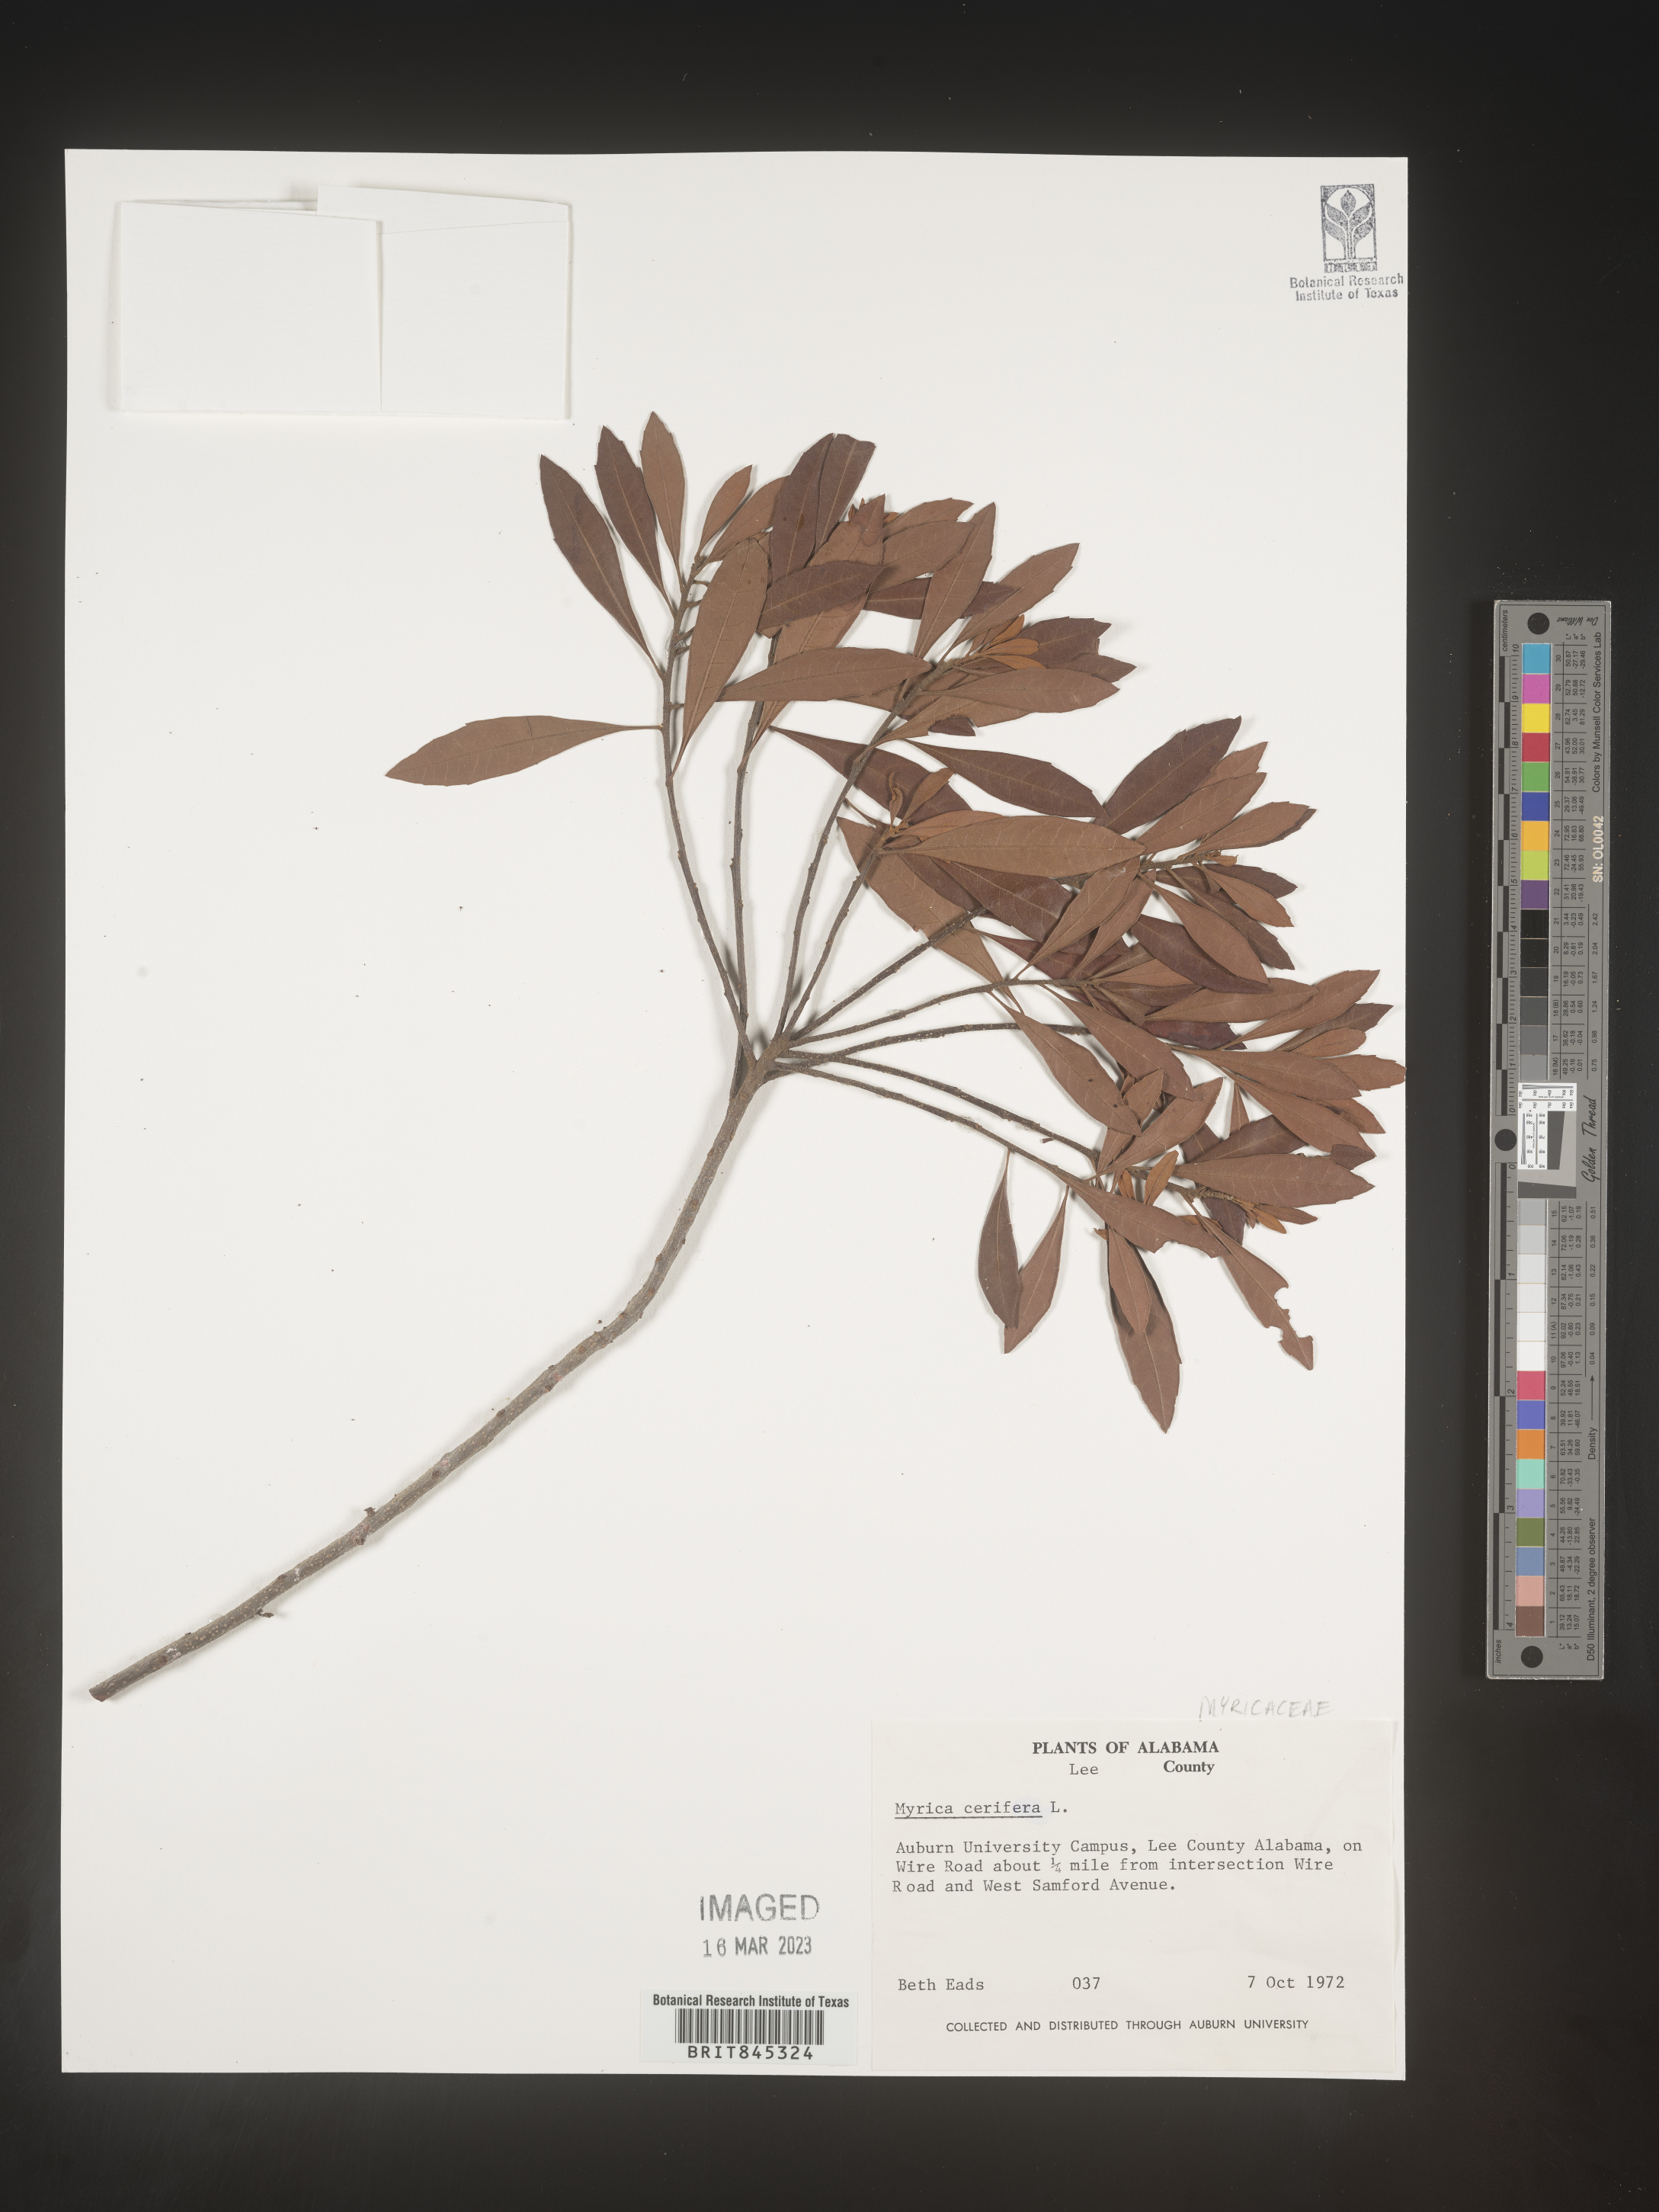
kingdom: Plantae
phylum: Tracheophyta
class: Magnoliopsida
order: Fagales
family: Myricaceae
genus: Morella
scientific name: Morella cerifera
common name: Wax myrtle
